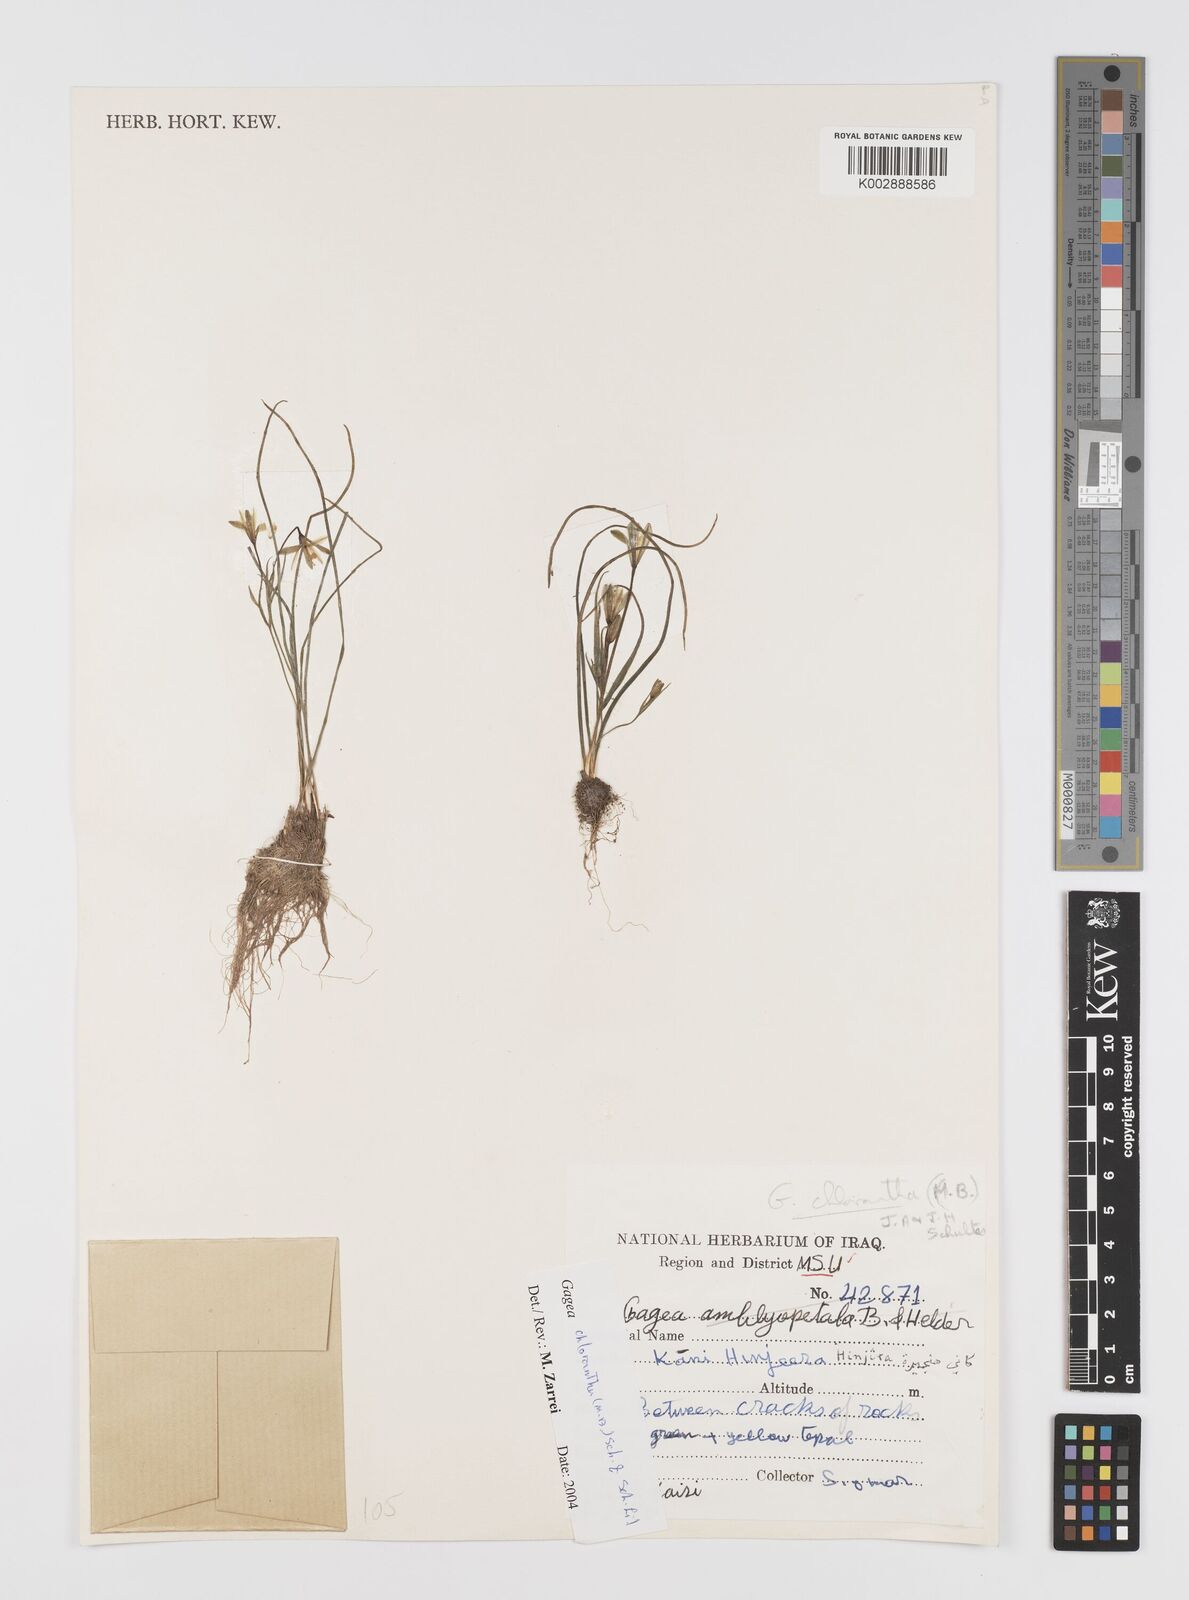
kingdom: Plantae
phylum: Tracheophyta
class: Liliopsida
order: Liliales
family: Liliaceae
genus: Gagea
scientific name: Gagea chlorantha
